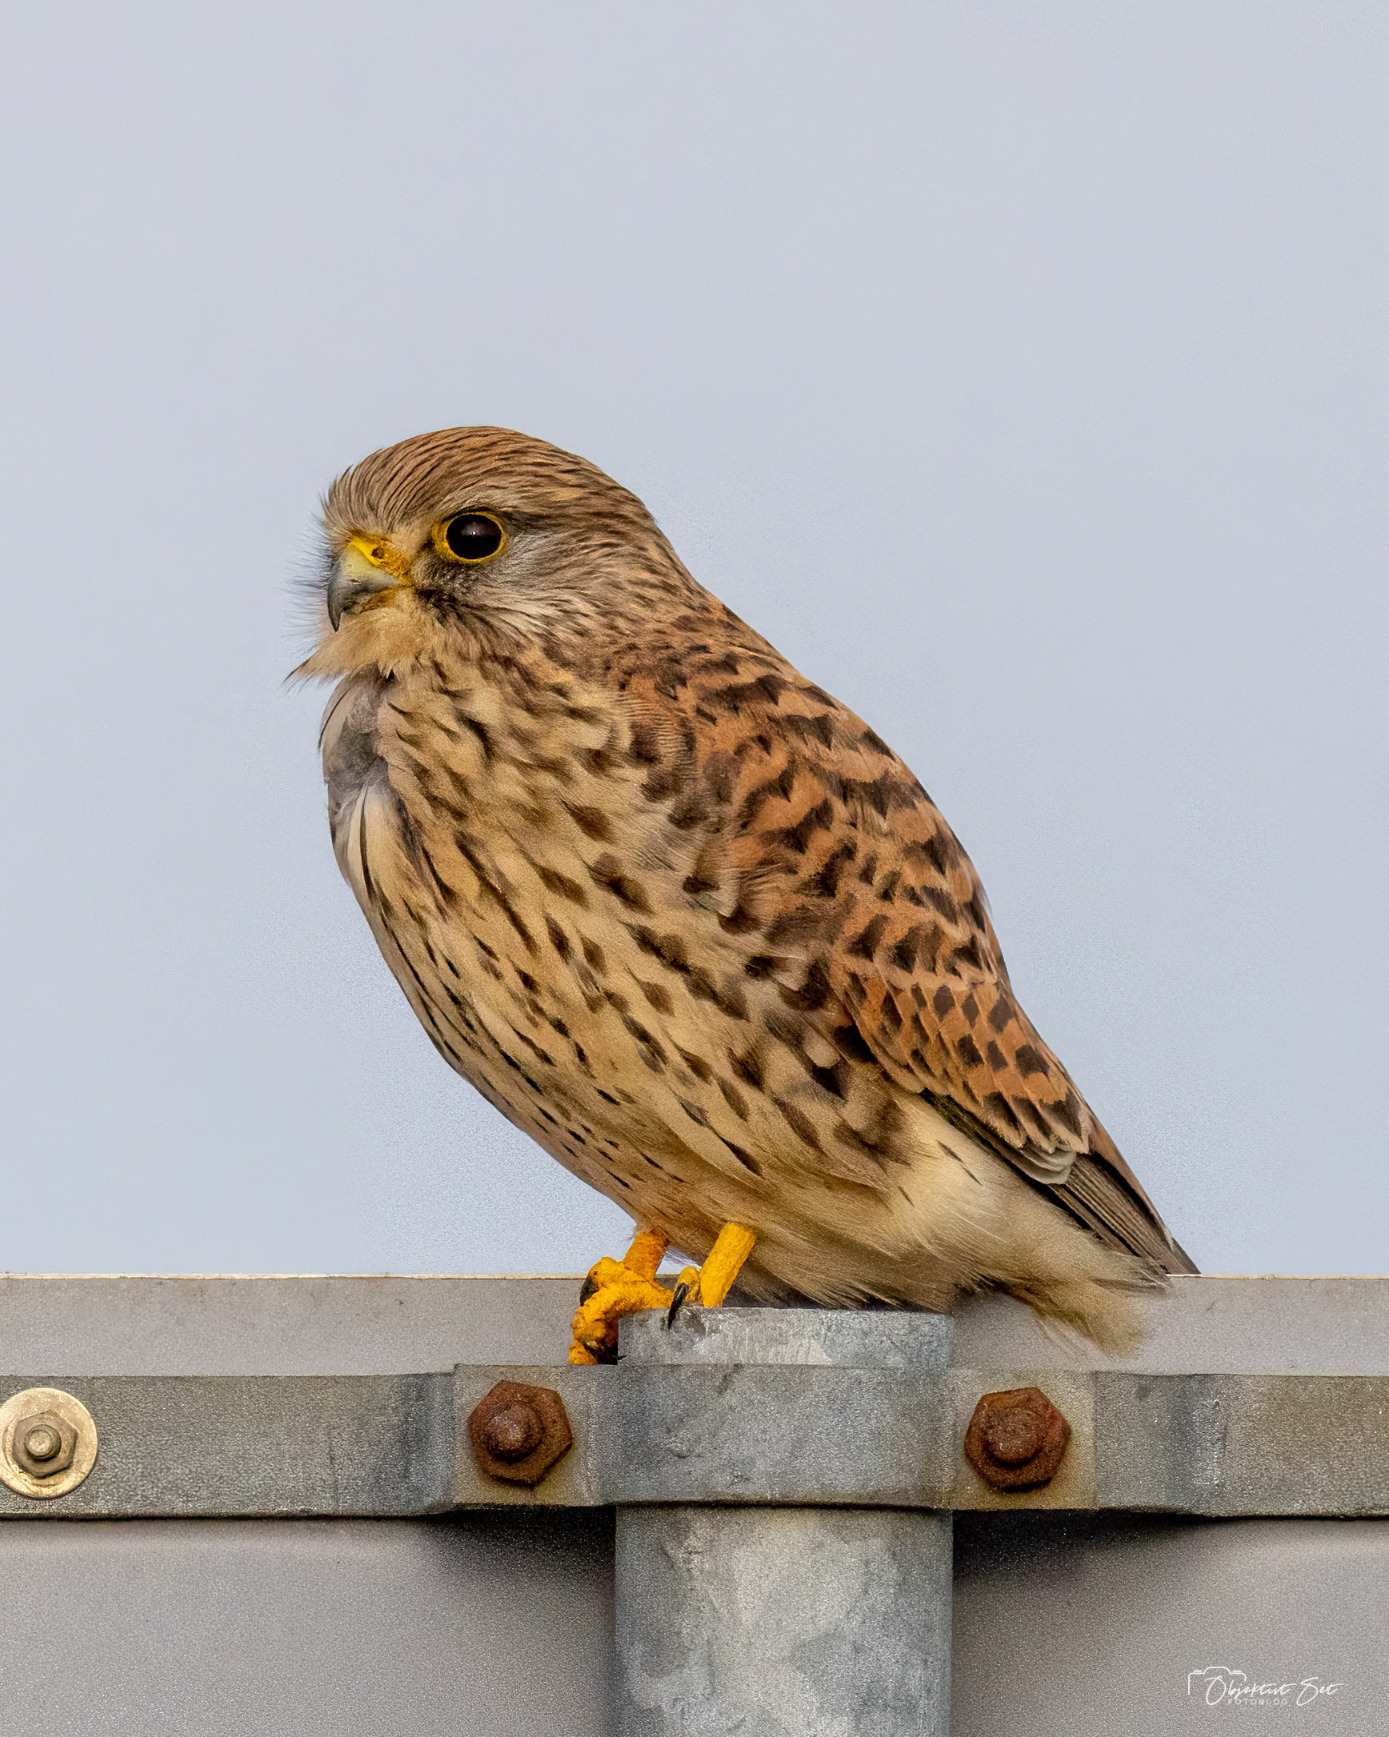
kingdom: Animalia
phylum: Chordata
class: Aves
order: Falconiformes
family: Falconidae
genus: Falco
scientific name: Falco tinnunculus
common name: Tårnfalk
